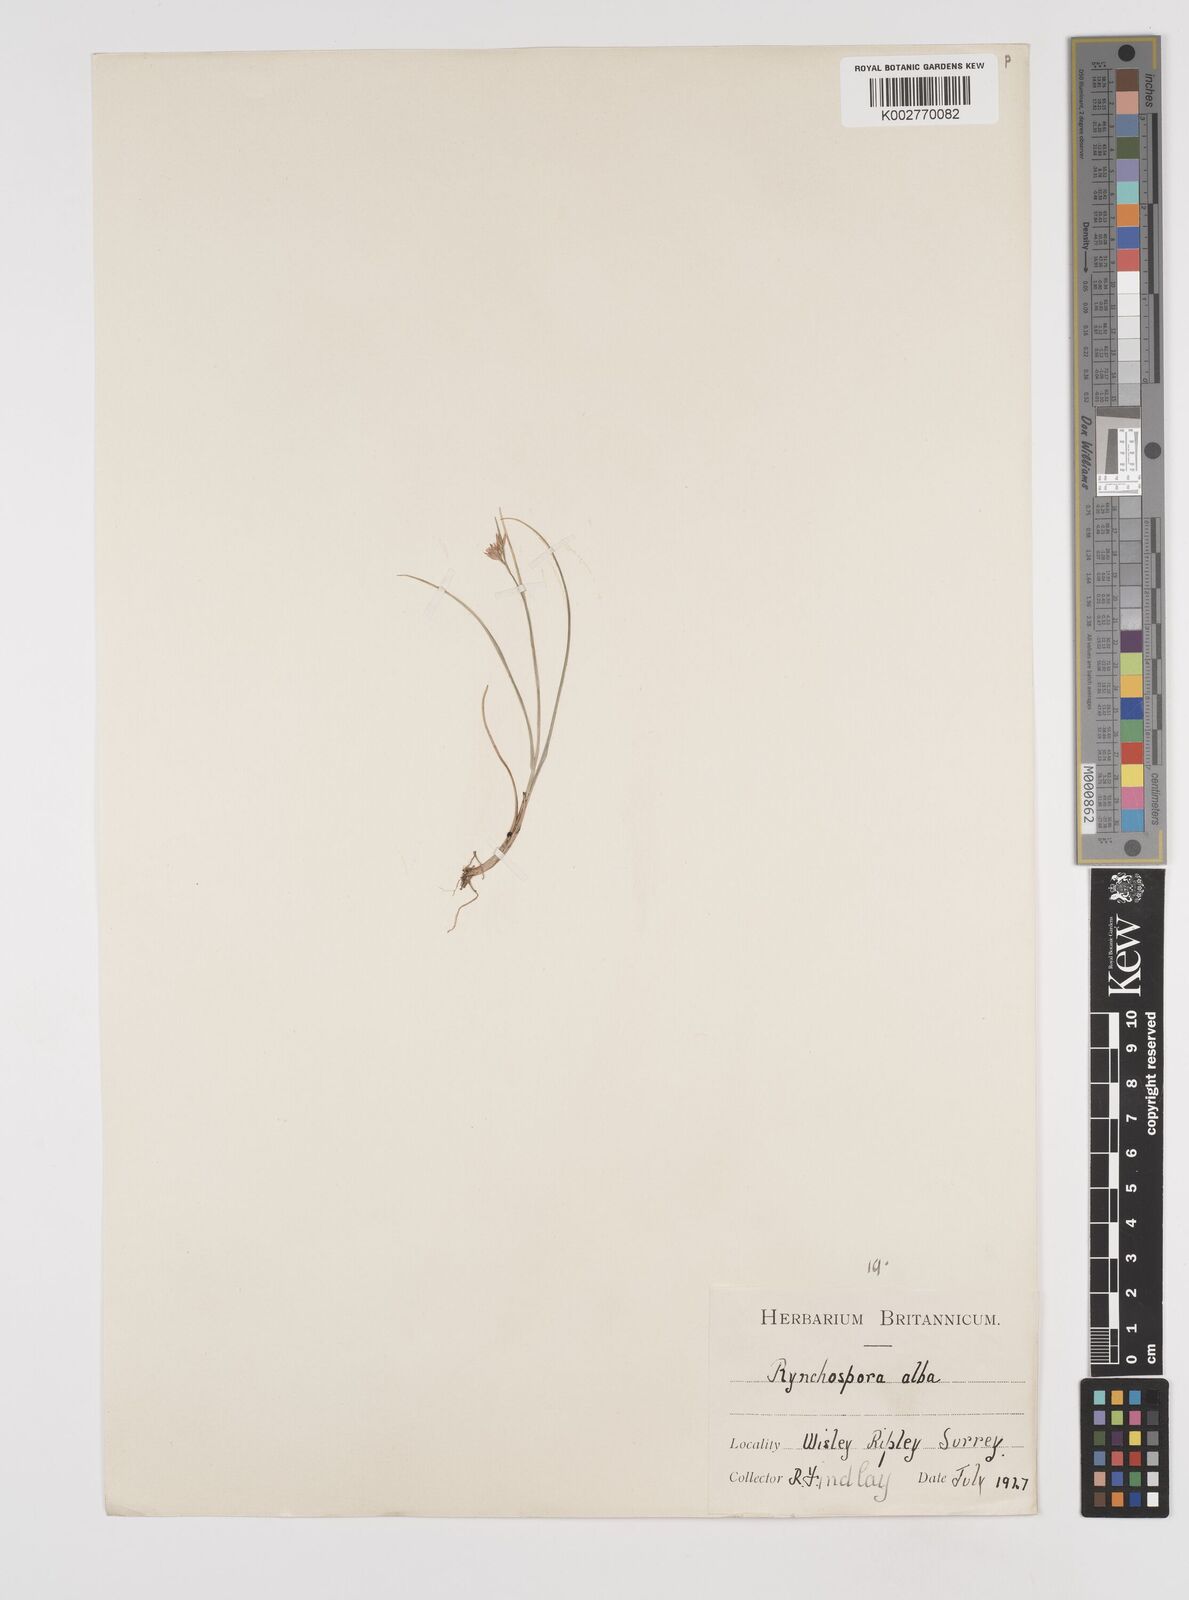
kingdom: Plantae
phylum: Tracheophyta
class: Liliopsida
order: Poales
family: Cyperaceae
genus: Rhynchospora
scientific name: Rhynchospora alba
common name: White beak-sedge
